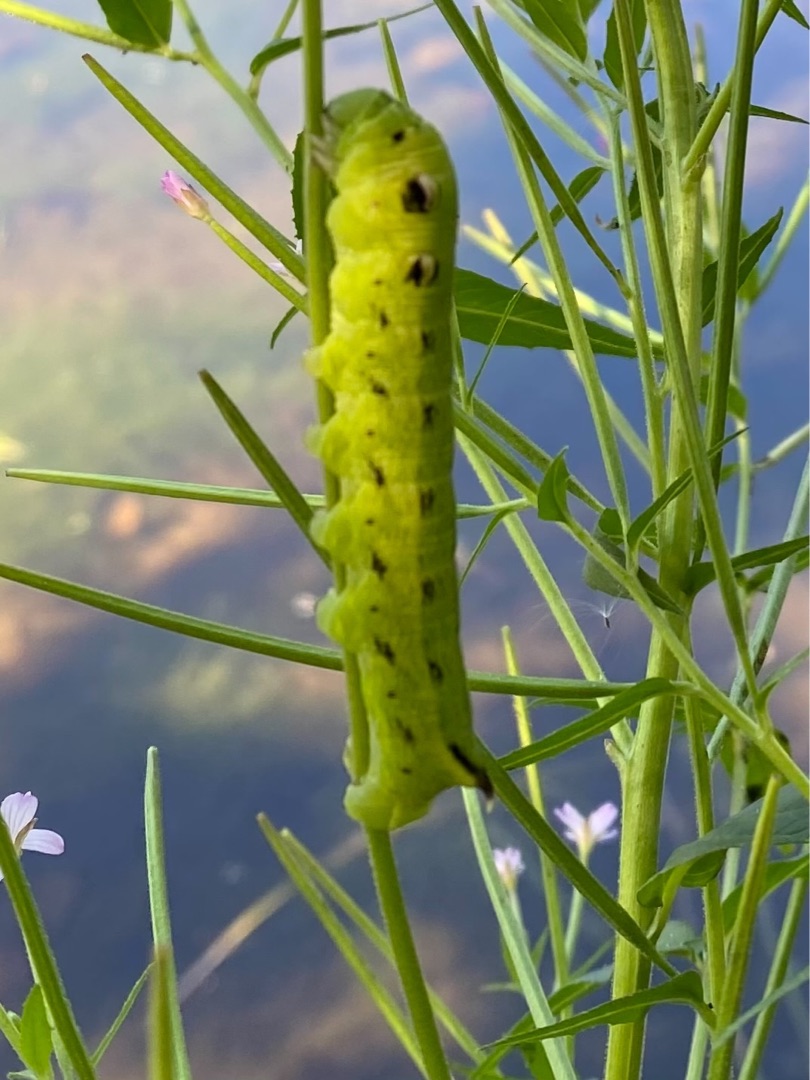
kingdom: Animalia
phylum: Arthropoda
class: Insecta
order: Lepidoptera
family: Sphingidae
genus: Deilephila
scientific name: Deilephila elpenor
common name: Dueurtsværmer
